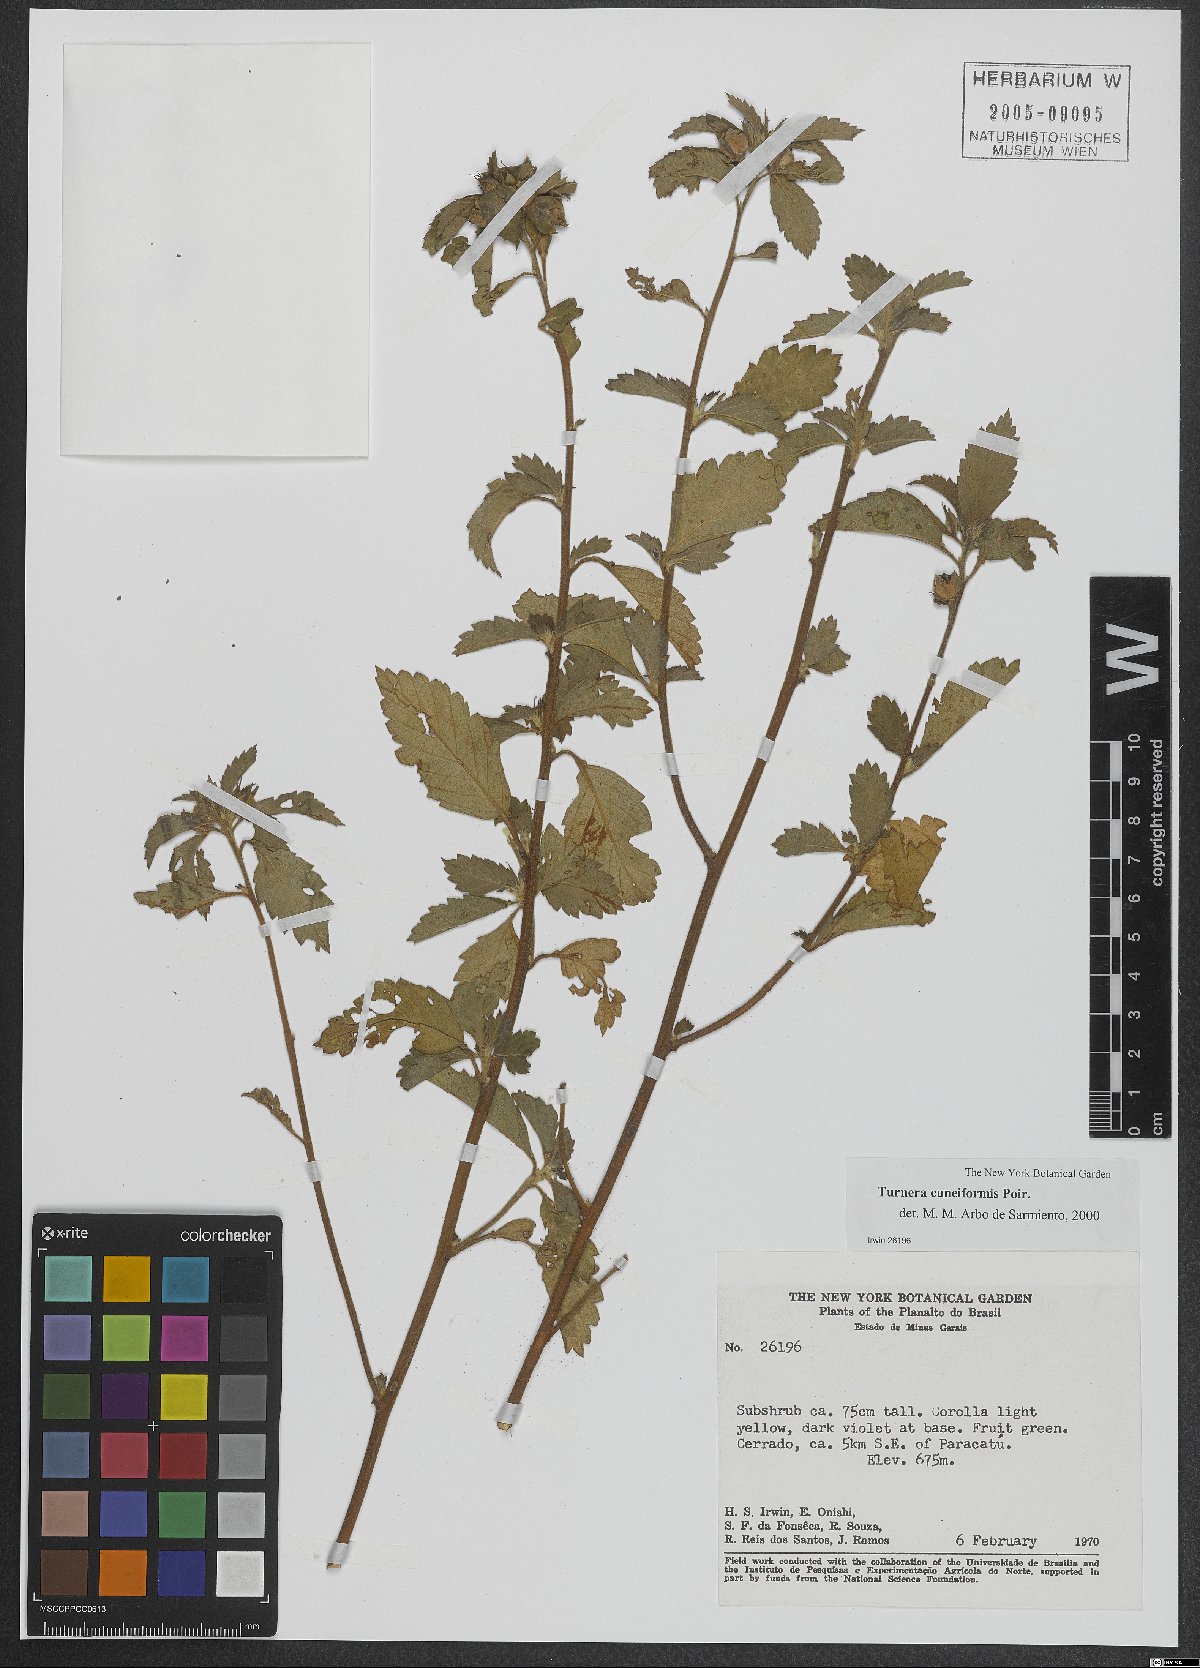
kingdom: Plantae
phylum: Tracheophyta
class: Magnoliopsida
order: Malpighiales
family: Turneraceae
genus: Turnera
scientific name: Turnera cuneiformis
